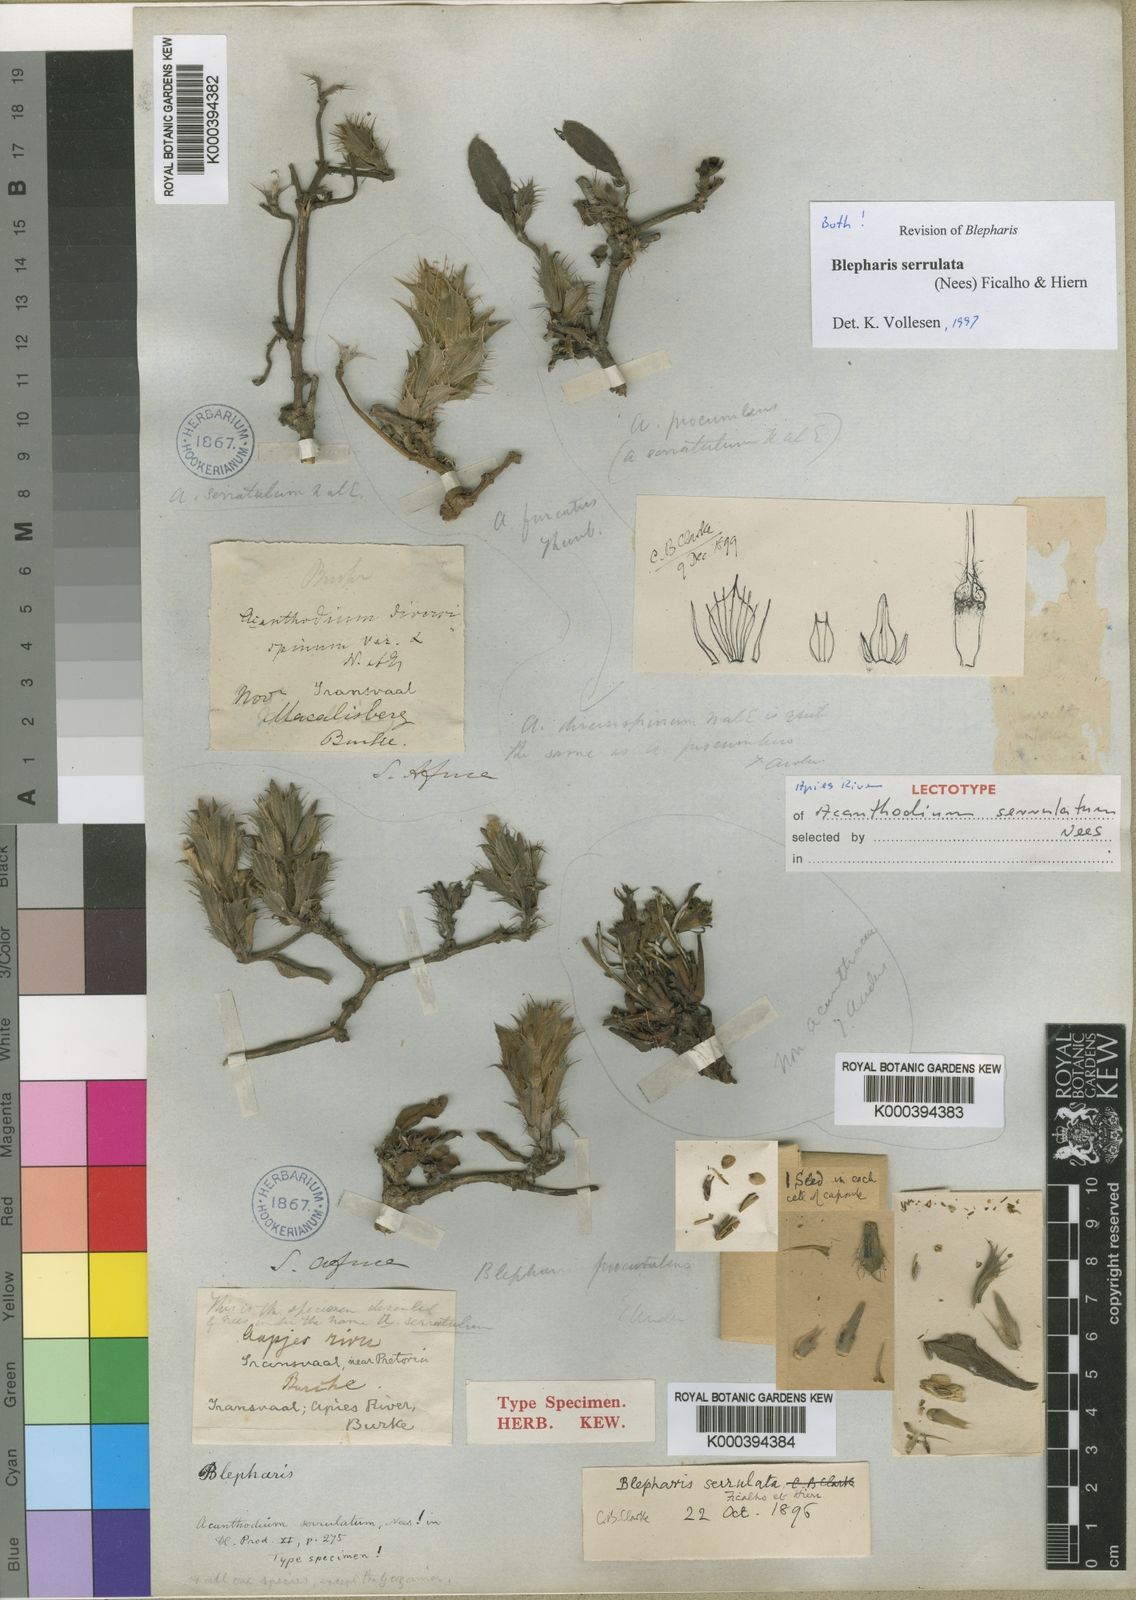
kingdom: Plantae
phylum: Tracheophyta
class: Magnoliopsida
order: Lamiales
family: Acanthaceae
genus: Blepharis
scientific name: Blepharis
